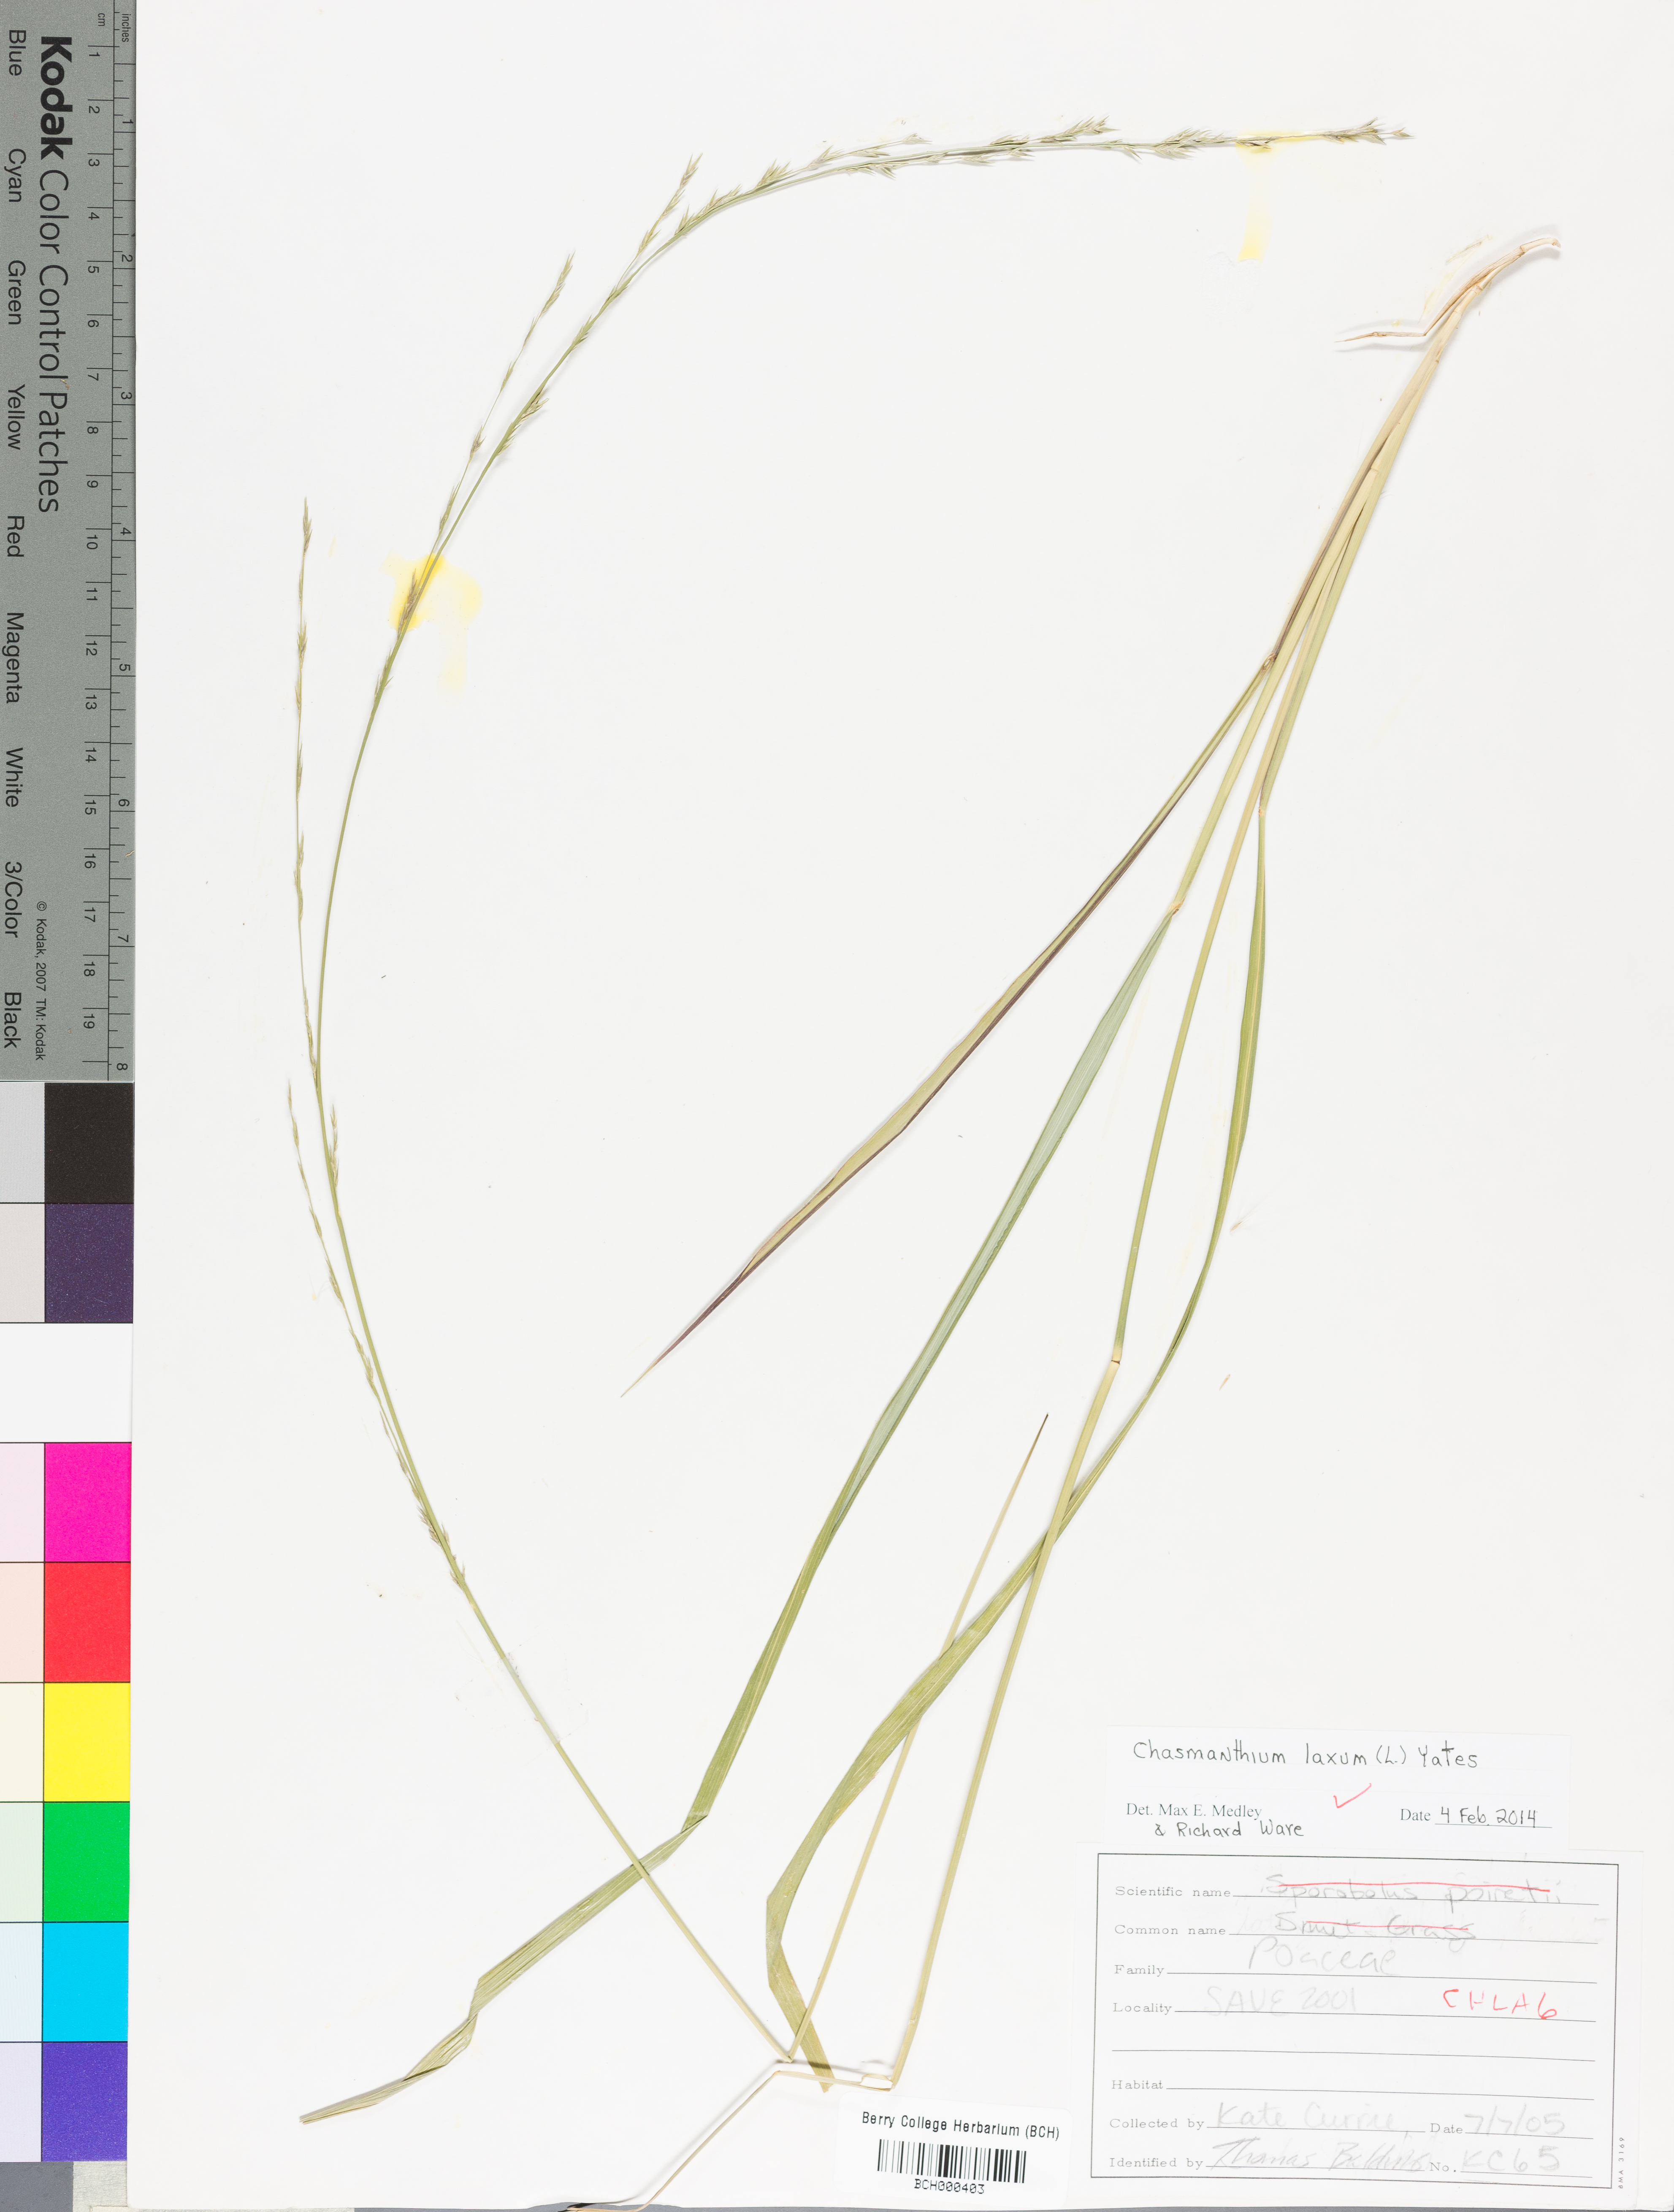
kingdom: Plantae
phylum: Tracheophyta
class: Liliopsida
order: Poales
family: Poaceae
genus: Chasmanthium
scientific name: Chasmanthium laxum
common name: Slender chasmanthium
